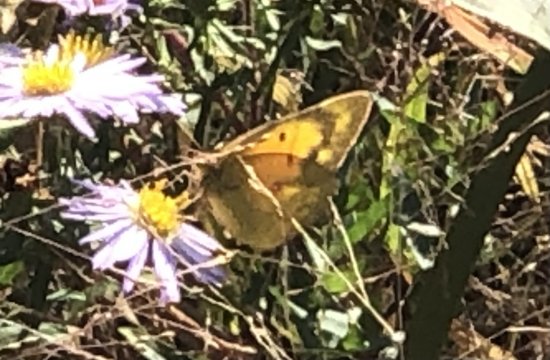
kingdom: Animalia
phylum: Arthropoda
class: Insecta
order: Lepidoptera
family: Pieridae
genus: Colias
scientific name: Colias eurytheme
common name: Orange Sulphur
